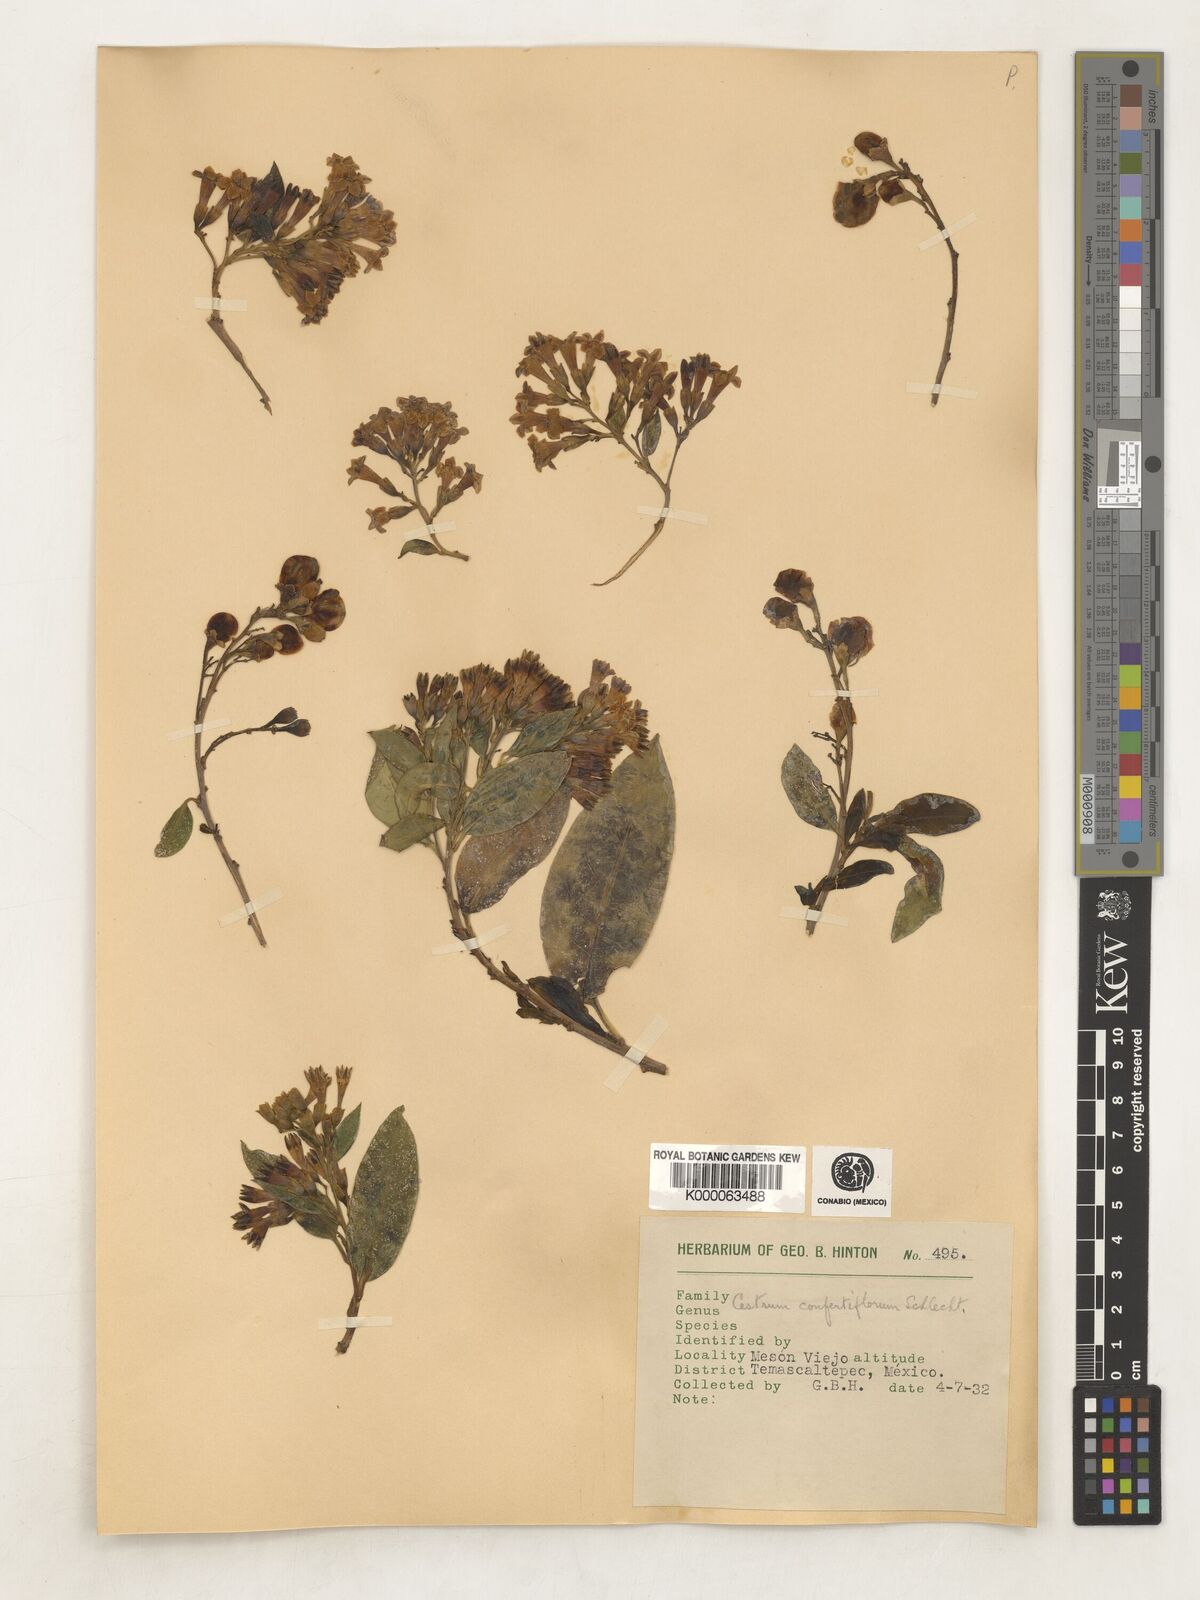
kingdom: Plantae
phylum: Tracheophyta
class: Magnoliopsida
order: Solanales
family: Solanaceae
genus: Cestrum
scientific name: Cestrum thyrsoideum
